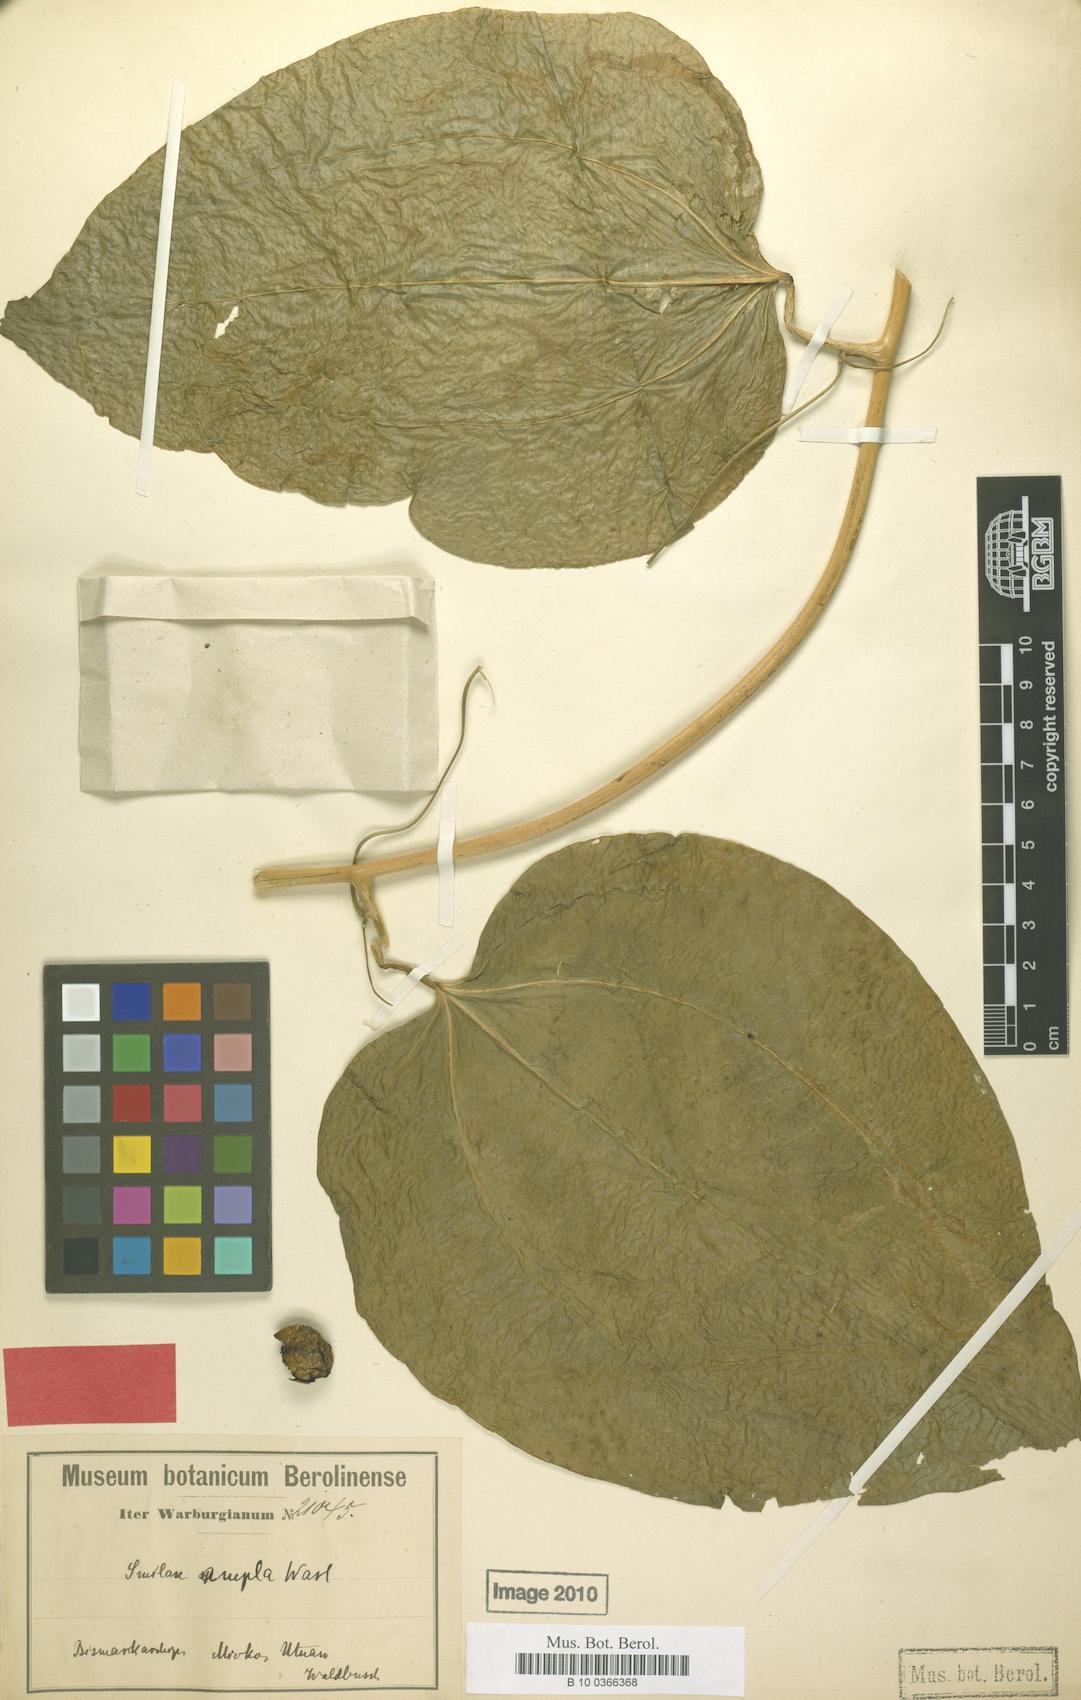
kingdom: Plantae
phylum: Tracheophyta
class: Liliopsida
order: Liliales
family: Smilacaceae
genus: Smilax
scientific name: Smilax ampla
